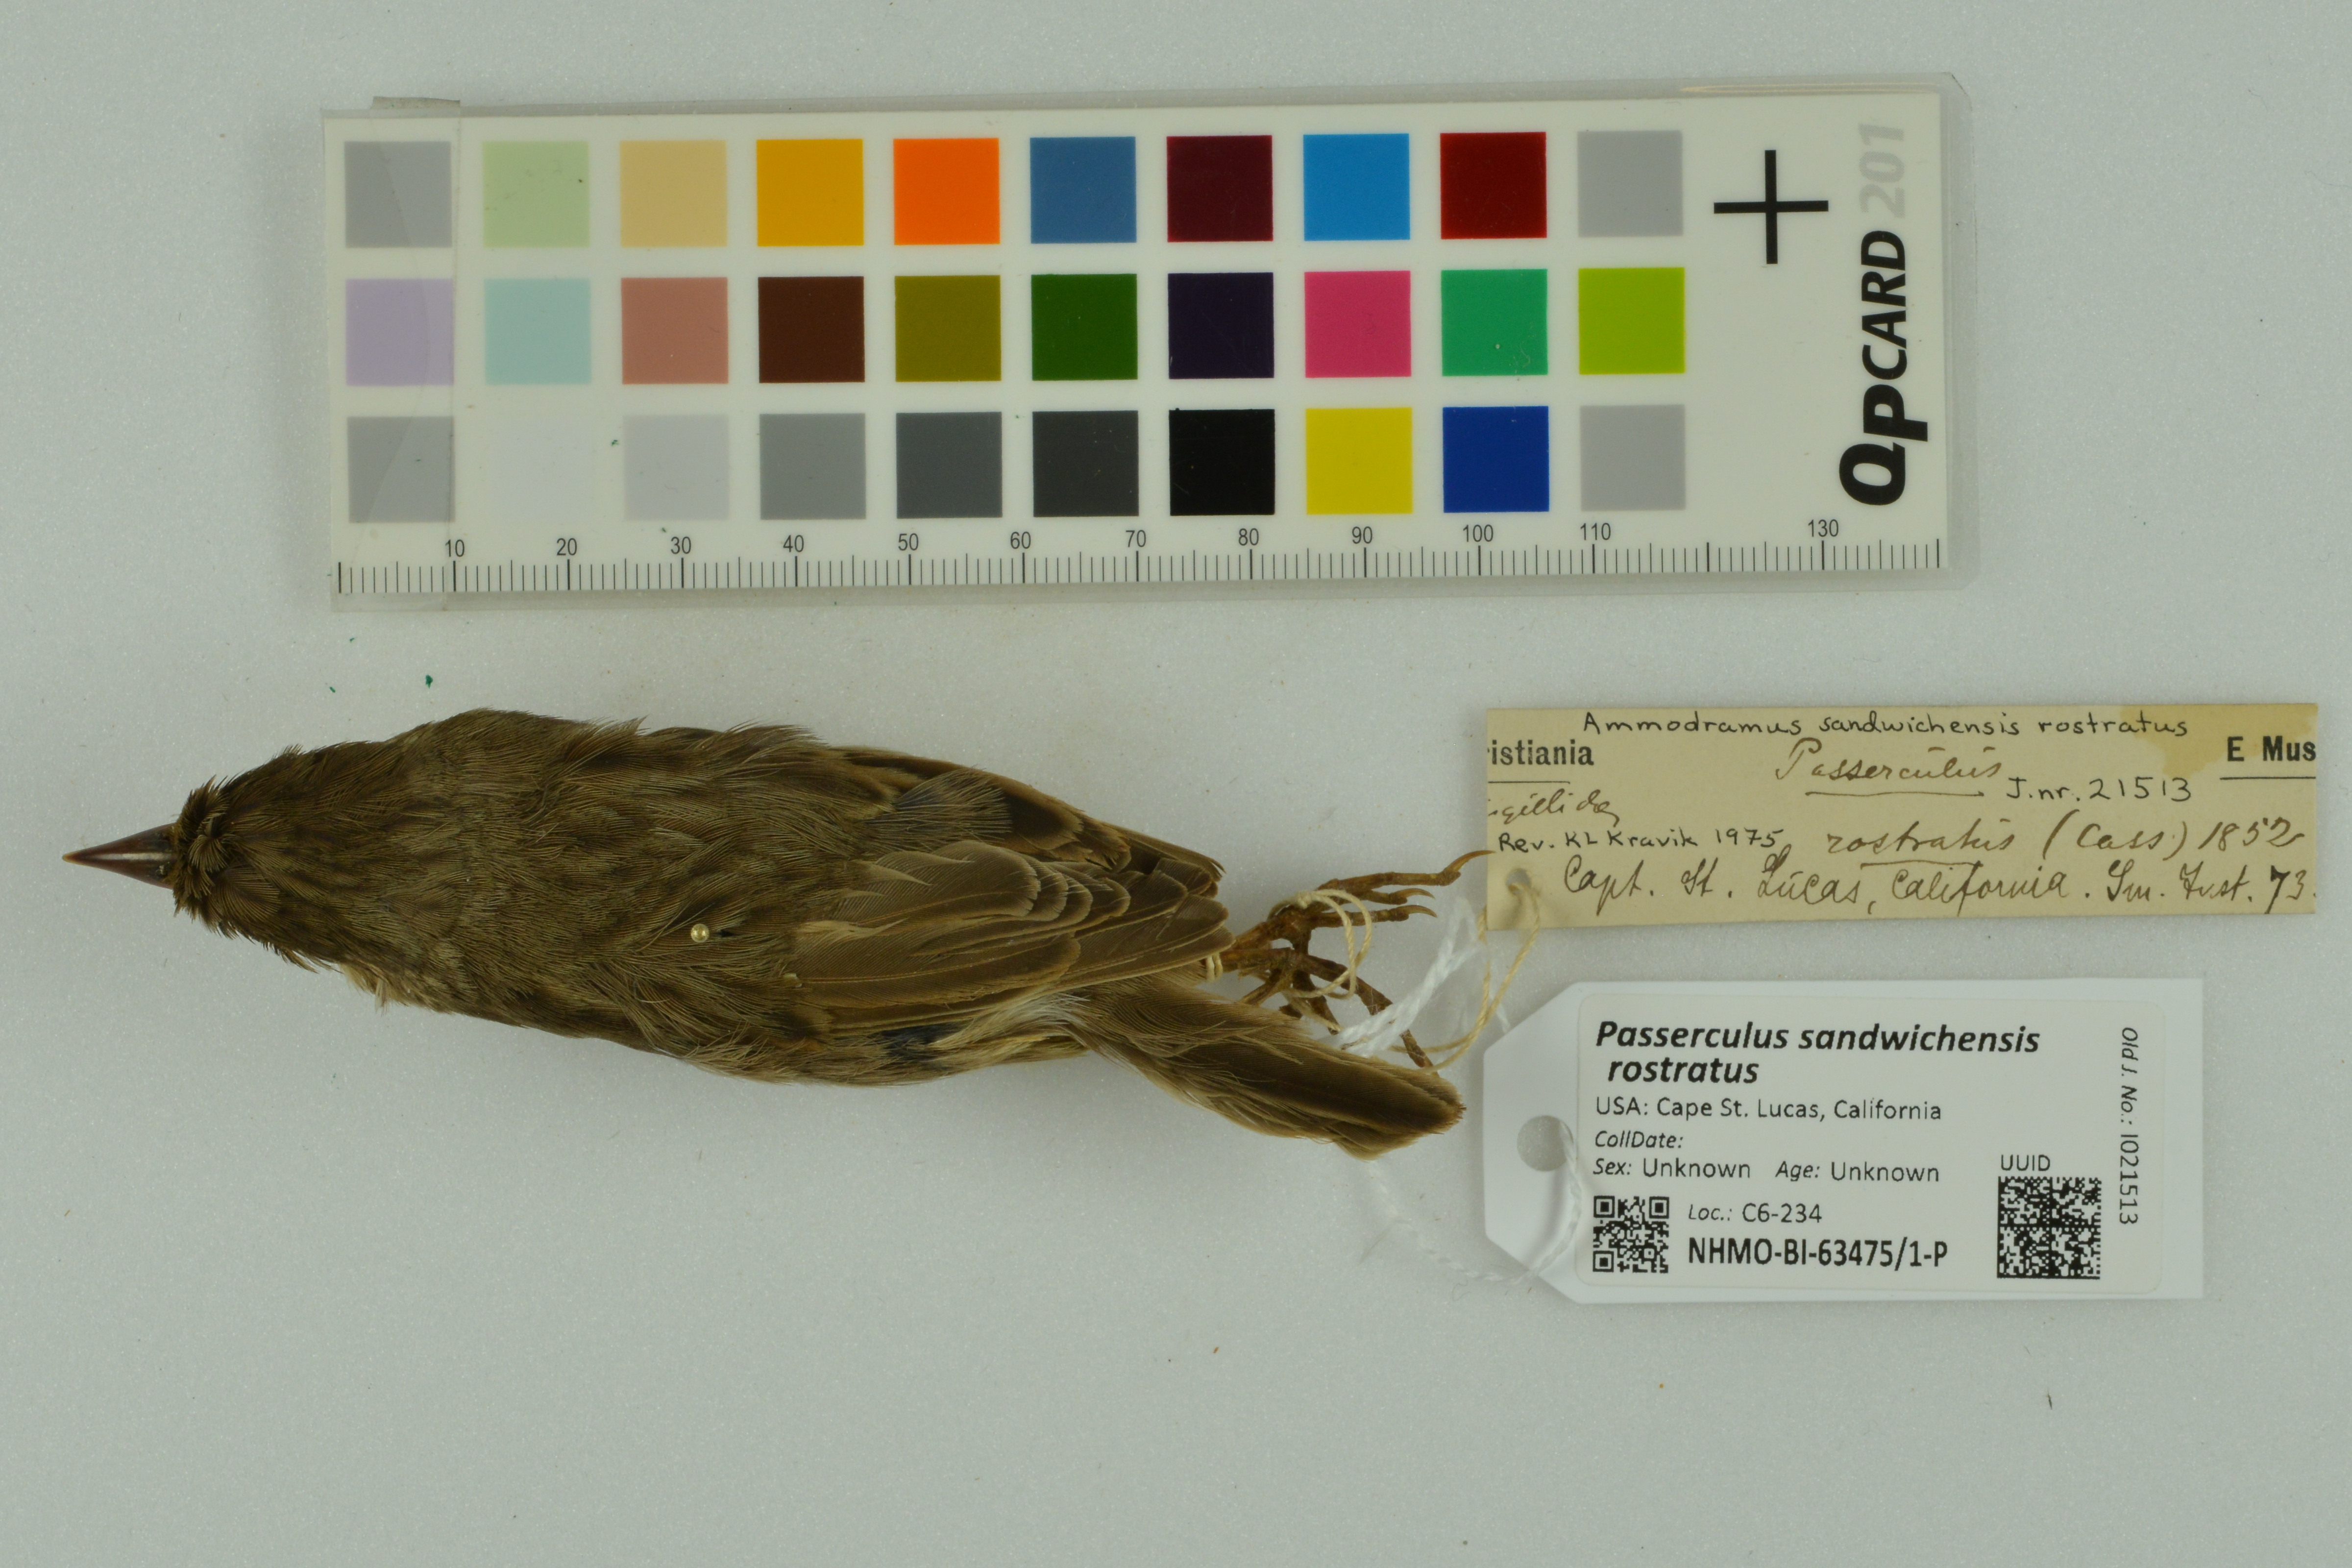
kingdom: Animalia
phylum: Chordata
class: Aves
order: Passeriformes
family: Passerellidae
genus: Passerculus
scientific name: Passerculus sandwichensis
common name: Savannah sparrow
